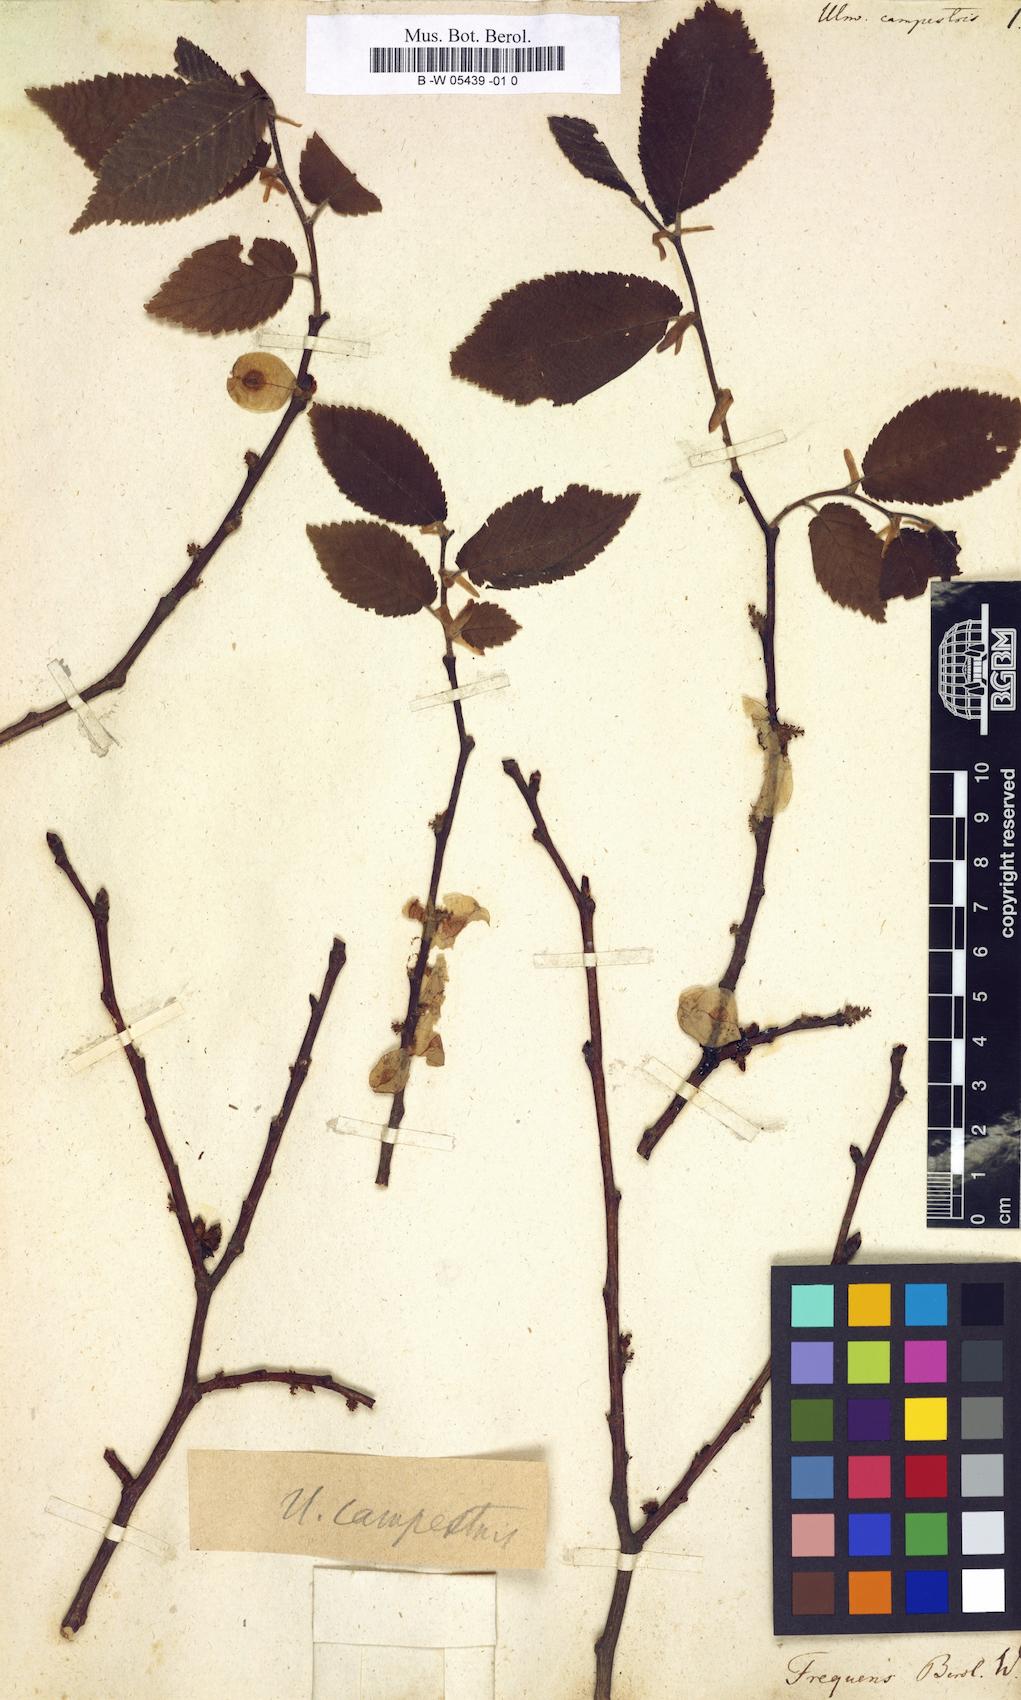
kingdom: Plantae
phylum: Tracheophyta
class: Magnoliopsida
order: Rosales
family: Ulmaceae
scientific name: Ulmaceae
